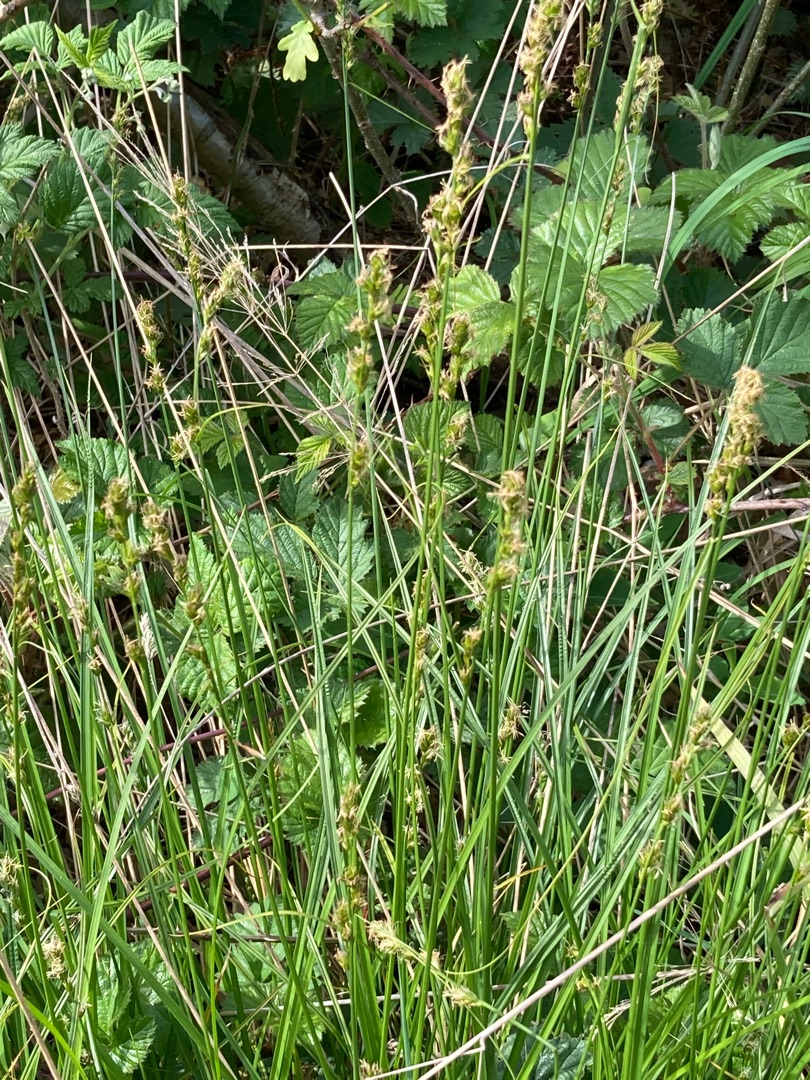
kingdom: Plantae
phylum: Tracheophyta
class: Liliopsida
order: Poales
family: Cyperaceae
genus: Carex
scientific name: Carex divulsa
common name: Mellembrudt star
